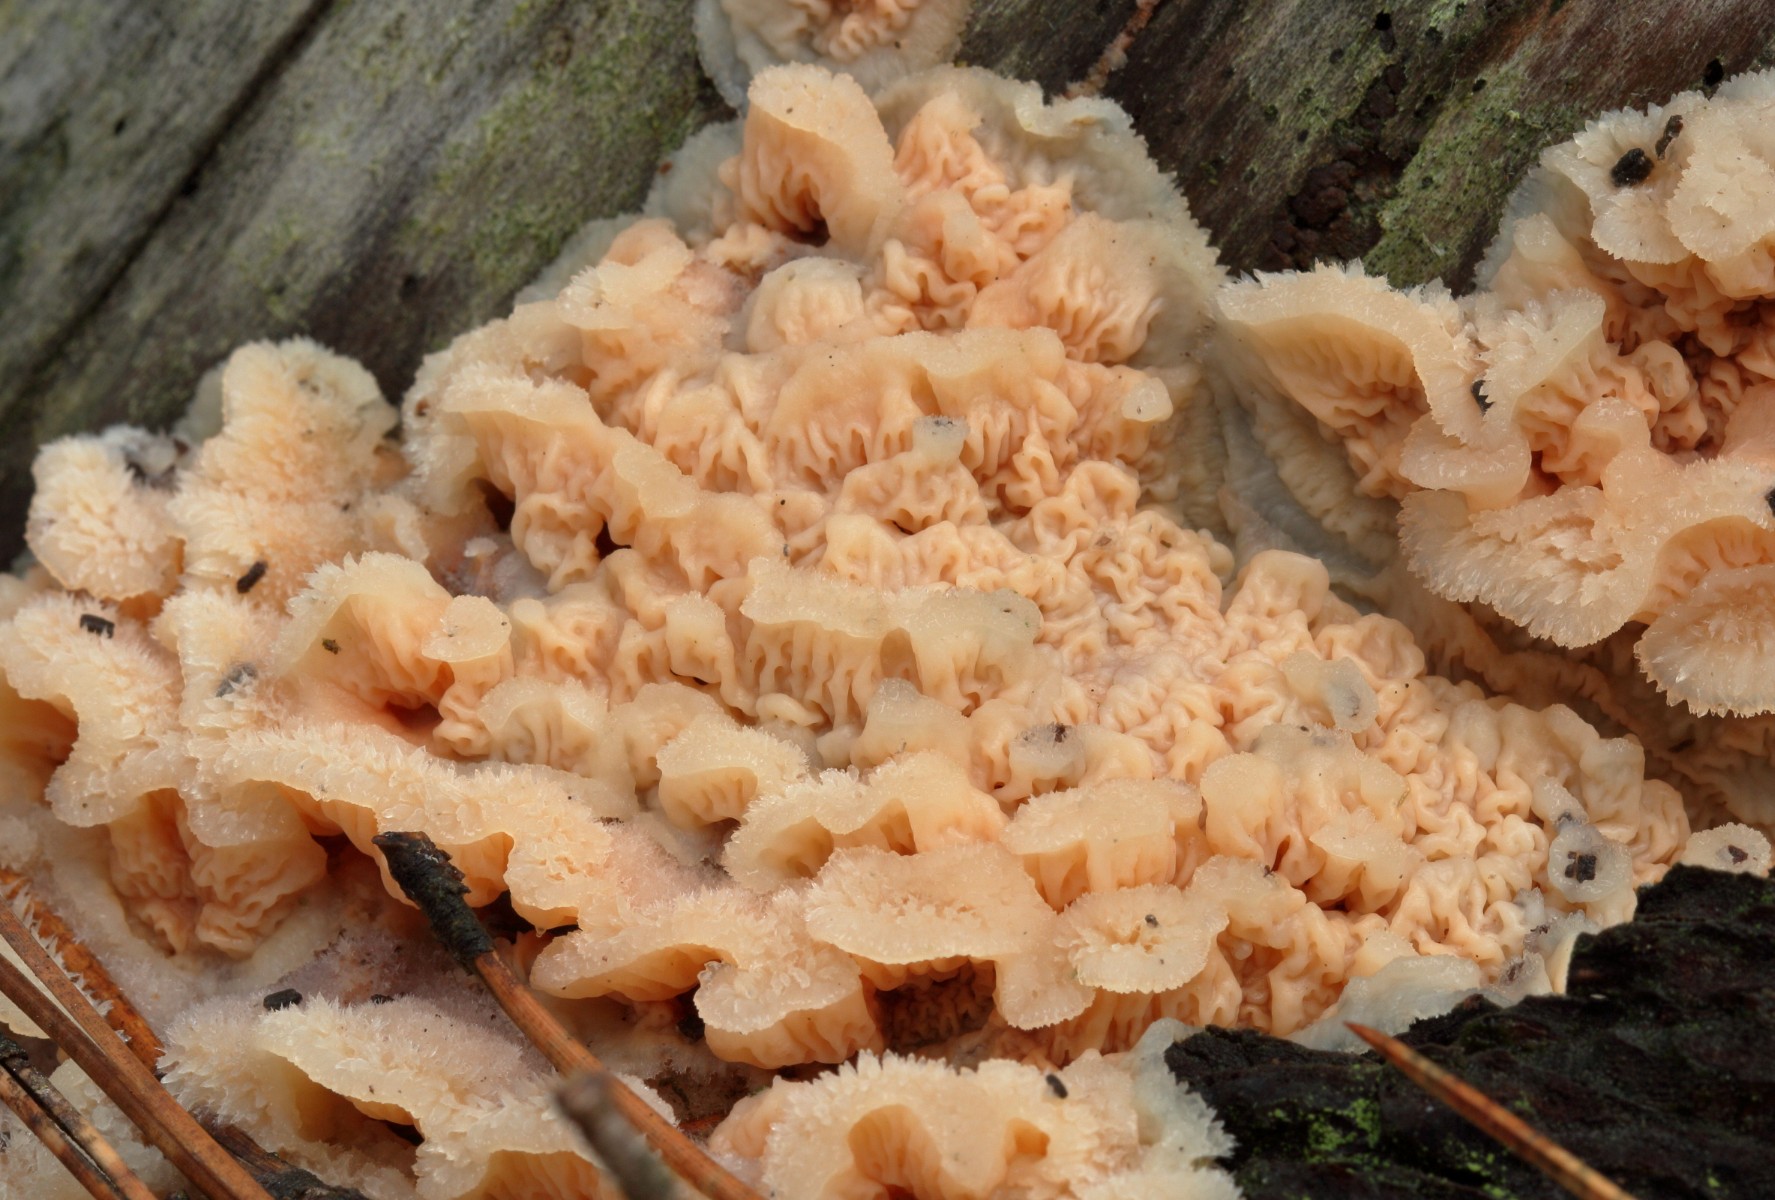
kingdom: Fungi
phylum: Basidiomycota
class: Agaricomycetes
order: Polyporales
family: Meruliaceae
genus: Phlebia
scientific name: Phlebia tremellosa
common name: bævrende åresvamp
